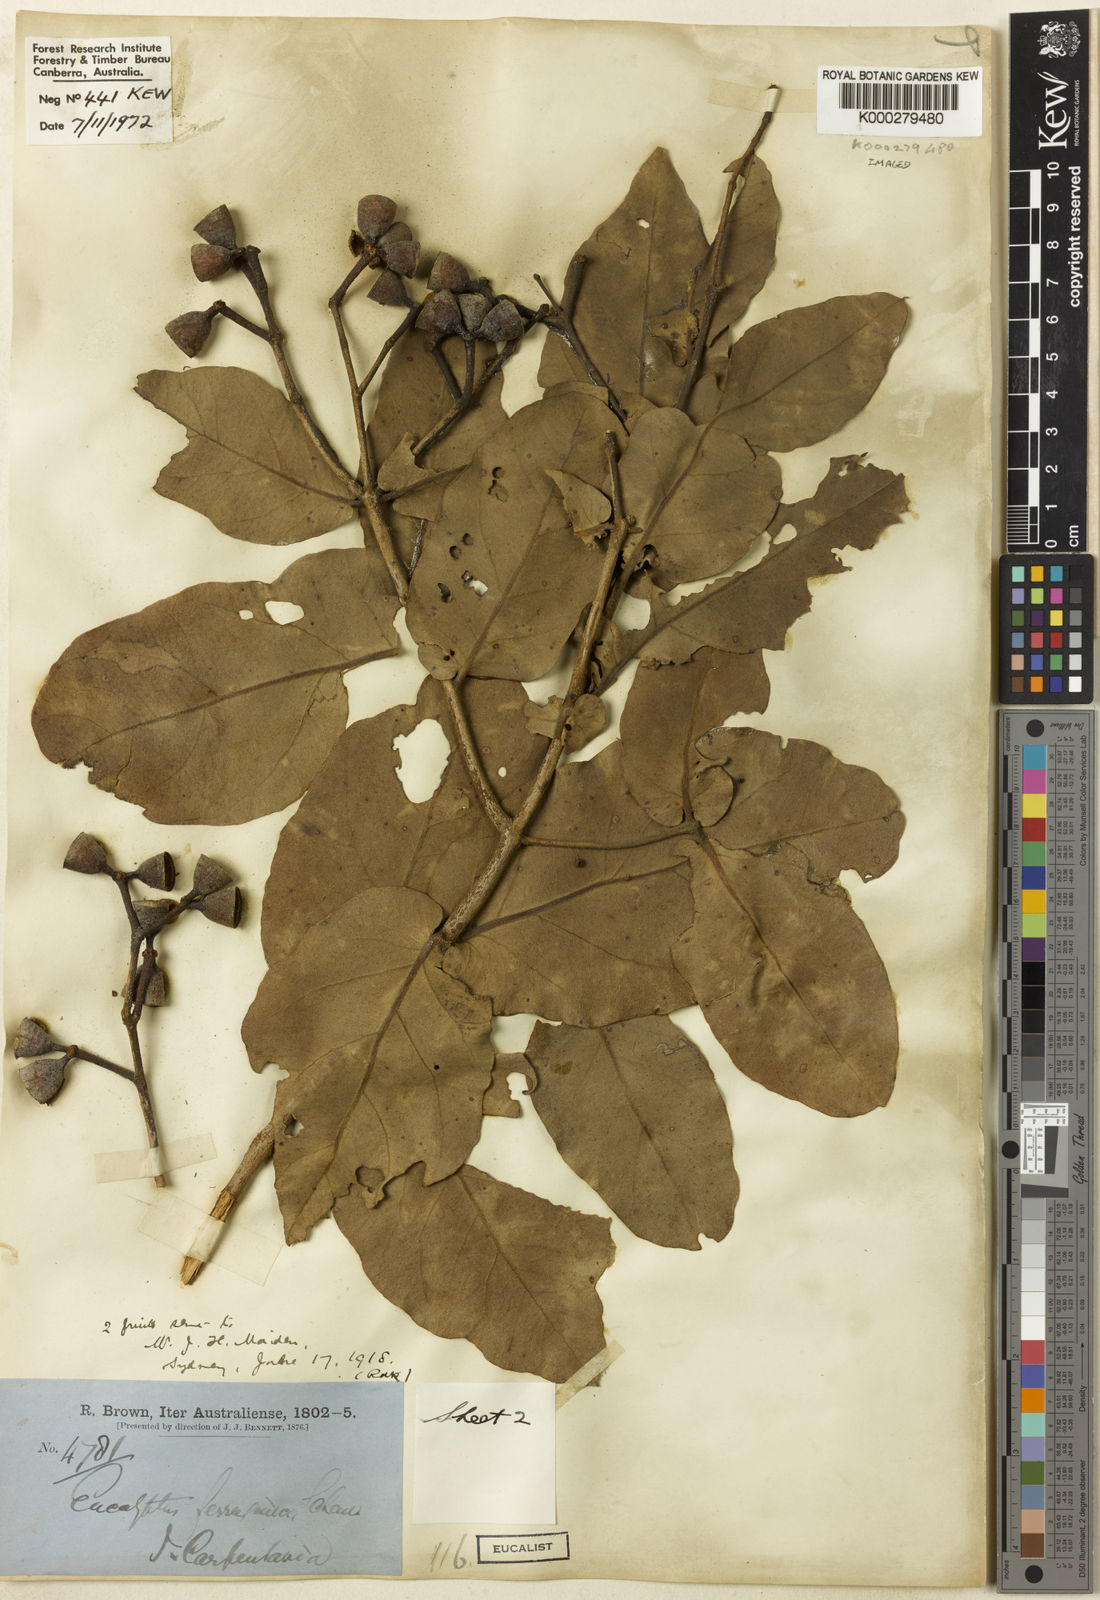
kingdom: Plantae
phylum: Tracheophyta
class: Magnoliopsida
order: Myrtales
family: Myrtaceae
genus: Corymbia
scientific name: Corymbia ferruginea
